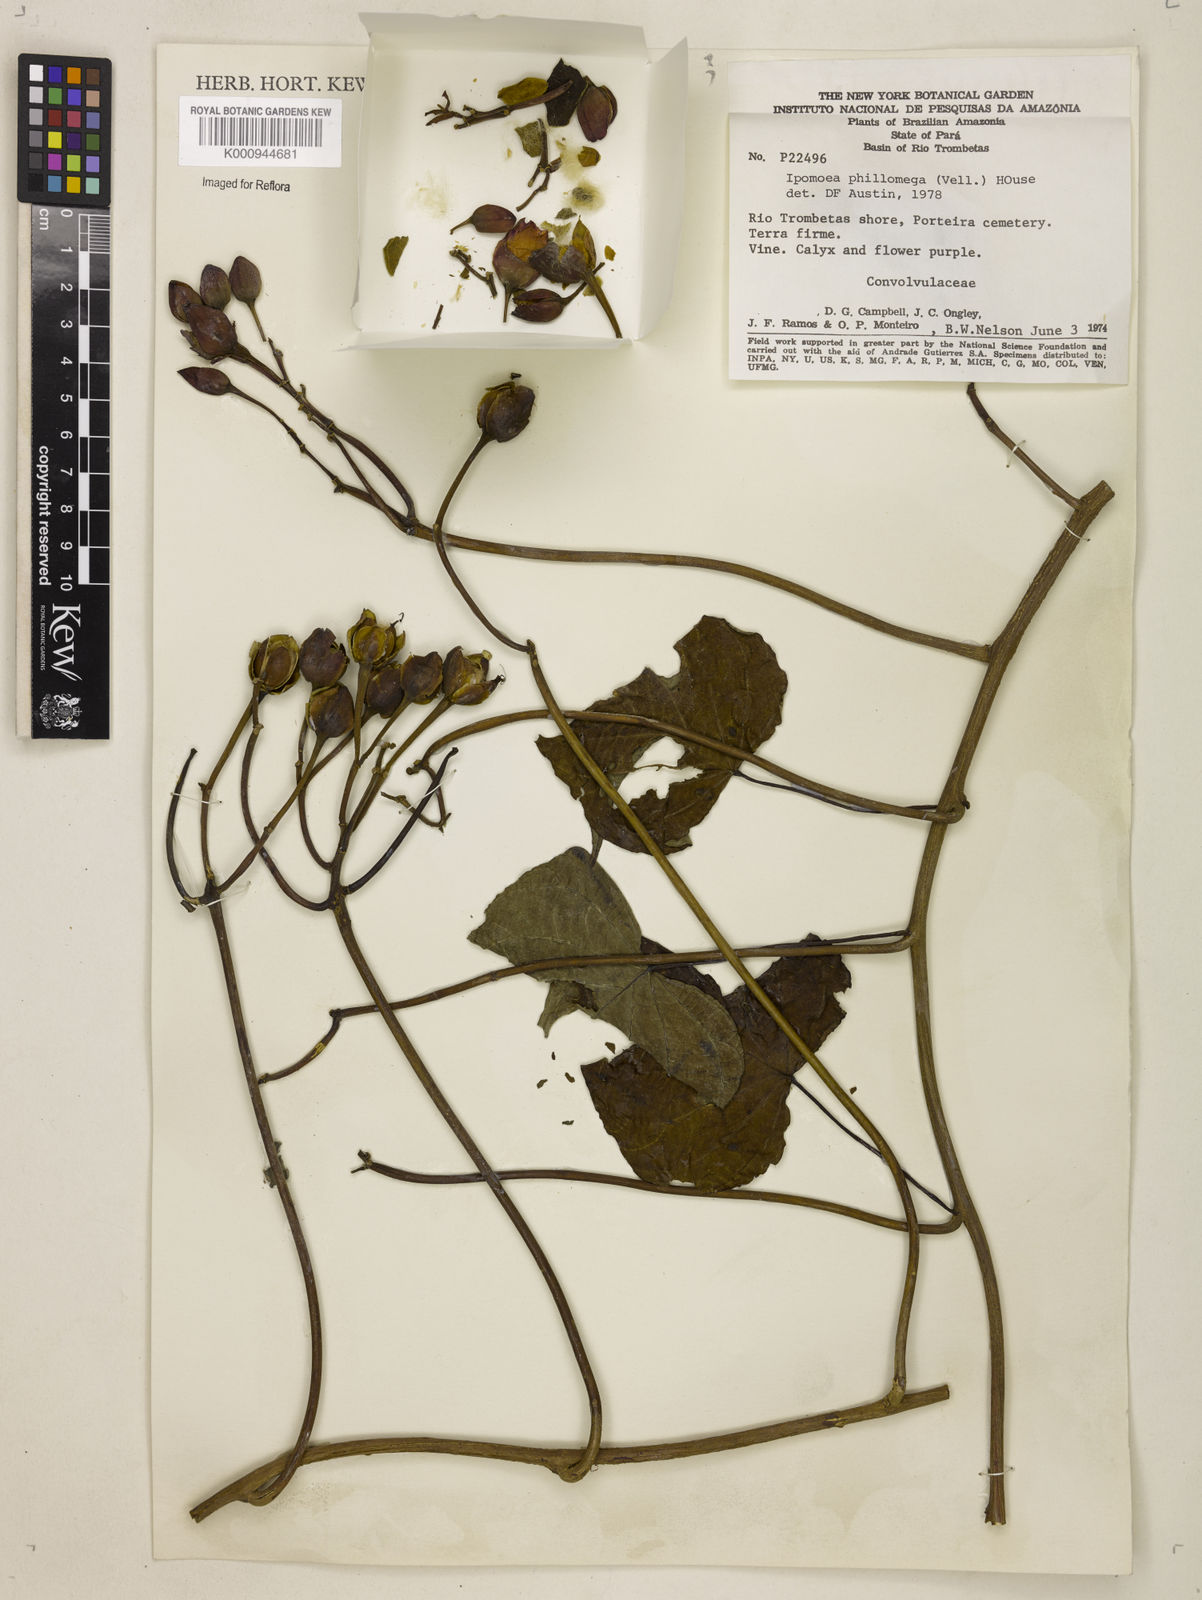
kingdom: Plantae
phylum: Tracheophyta
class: Magnoliopsida
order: Solanales
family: Convolvulaceae
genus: Ipomoea
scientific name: Ipomoea philomega
